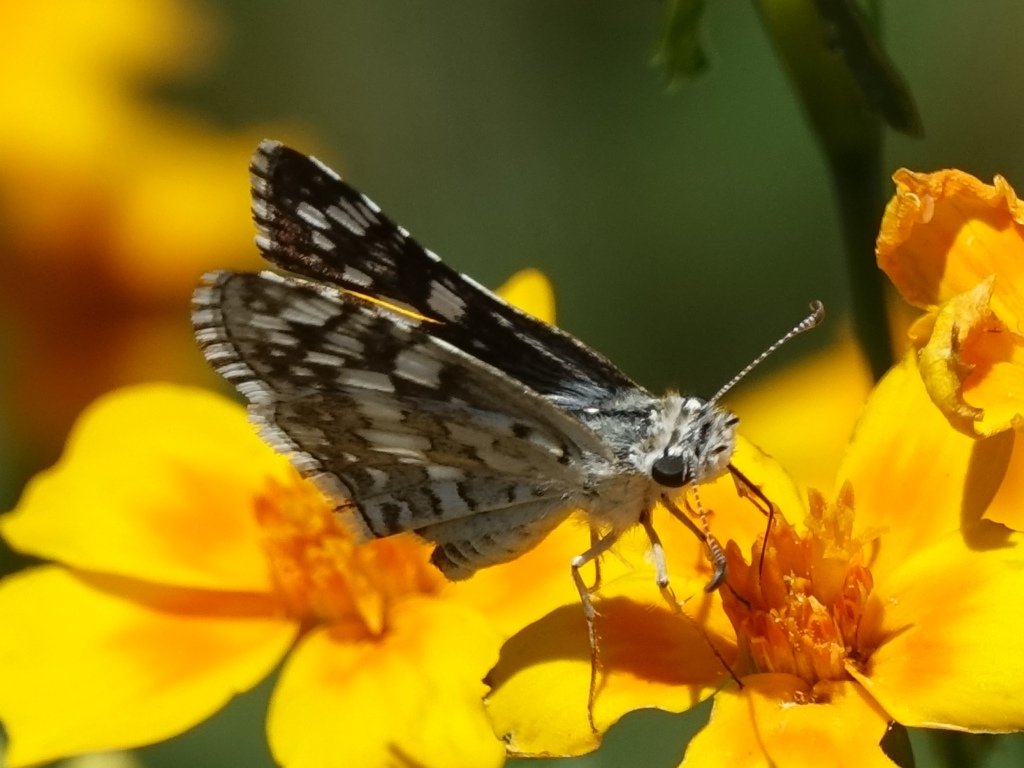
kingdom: Animalia
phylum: Arthropoda
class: Insecta
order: Lepidoptera
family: Hesperiidae
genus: Pyrgus
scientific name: Pyrgus communis
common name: Common Checkered-Skipper
